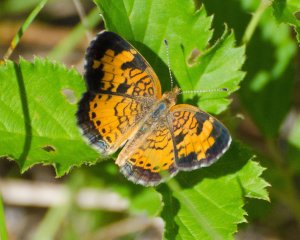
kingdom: Animalia
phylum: Arthropoda
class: Insecta
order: Lepidoptera
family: Nymphalidae
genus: Phyciodes
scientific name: Phyciodes
